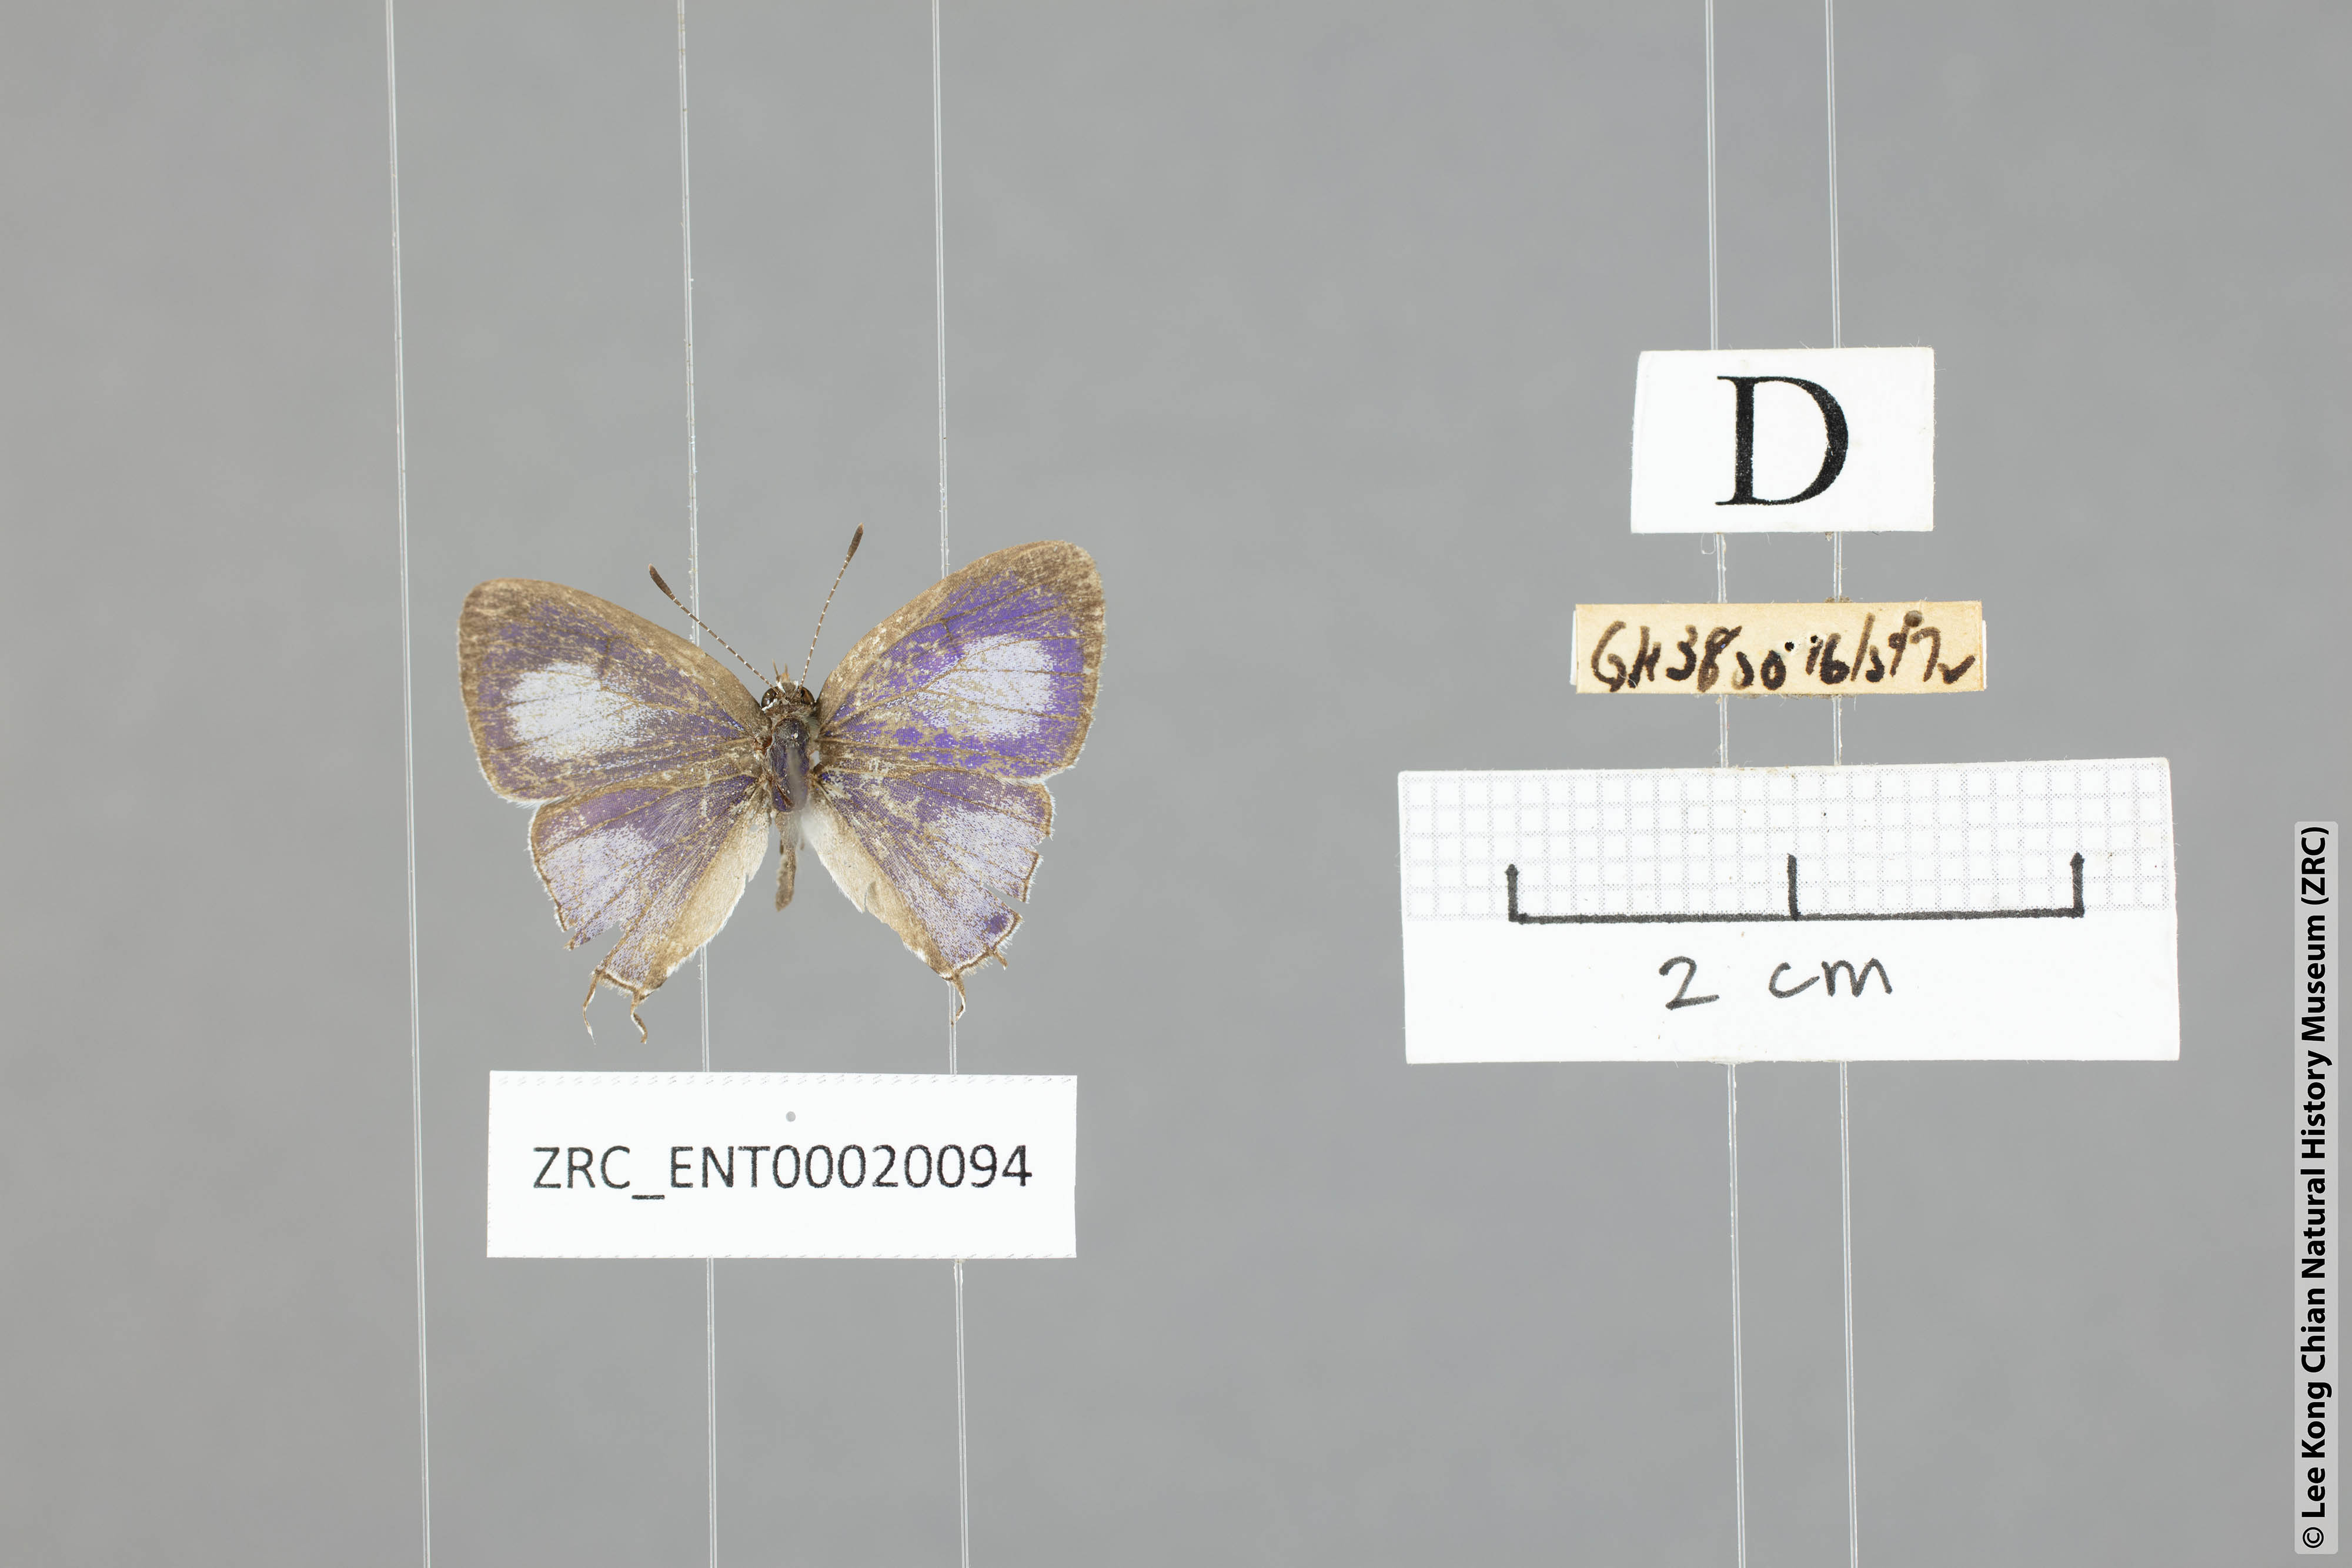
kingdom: Animalia
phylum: Arthropoda
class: Insecta
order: Lepidoptera
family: Lycaenidae
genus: Chliaria
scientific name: Chliaria kina
